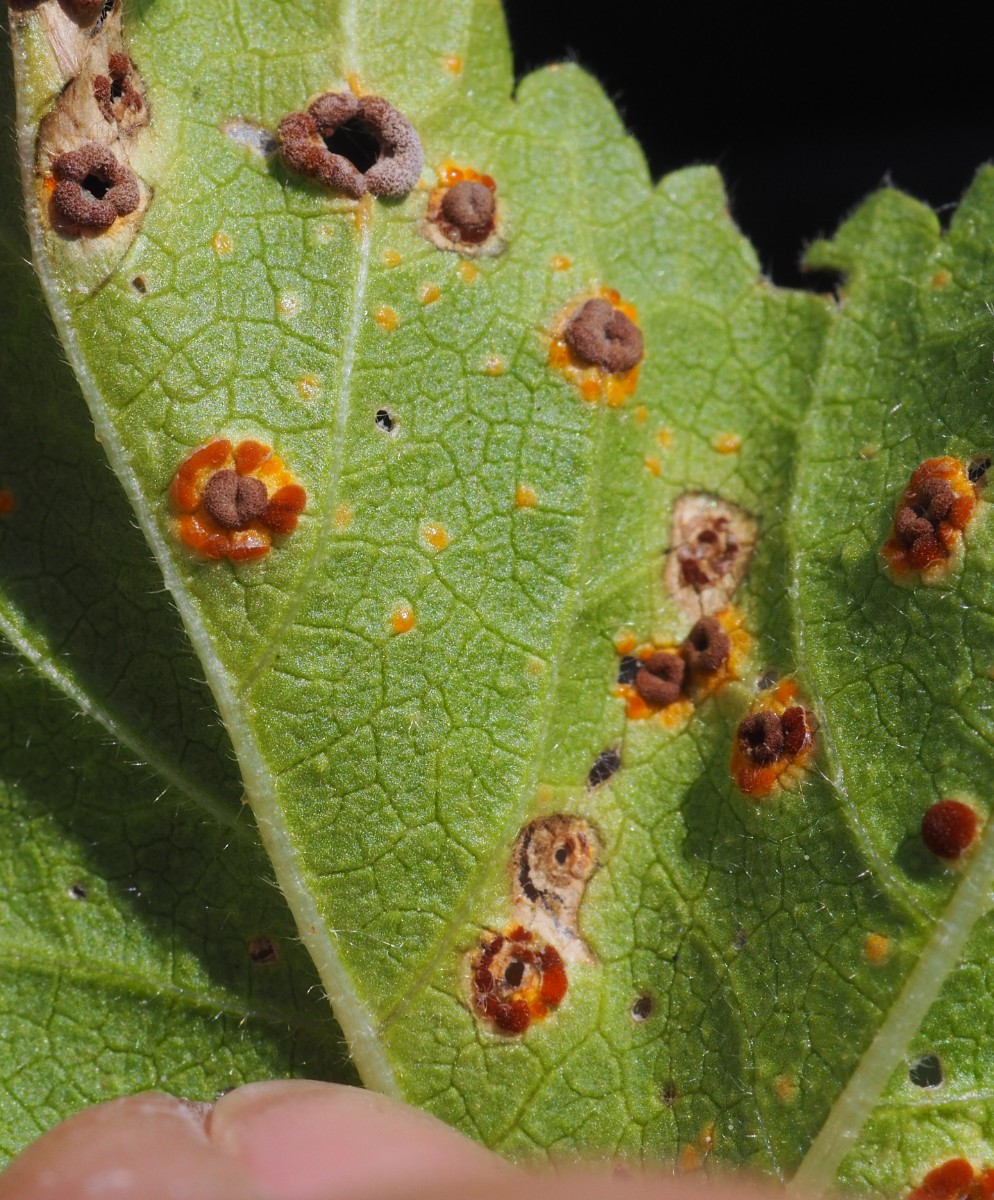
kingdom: Fungi
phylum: Basidiomycota
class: Pucciniomycetes
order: Pucciniales
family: Pucciniaceae
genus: Puccinia
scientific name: Puccinia malvacearum
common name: stokrose-tvecellerust
